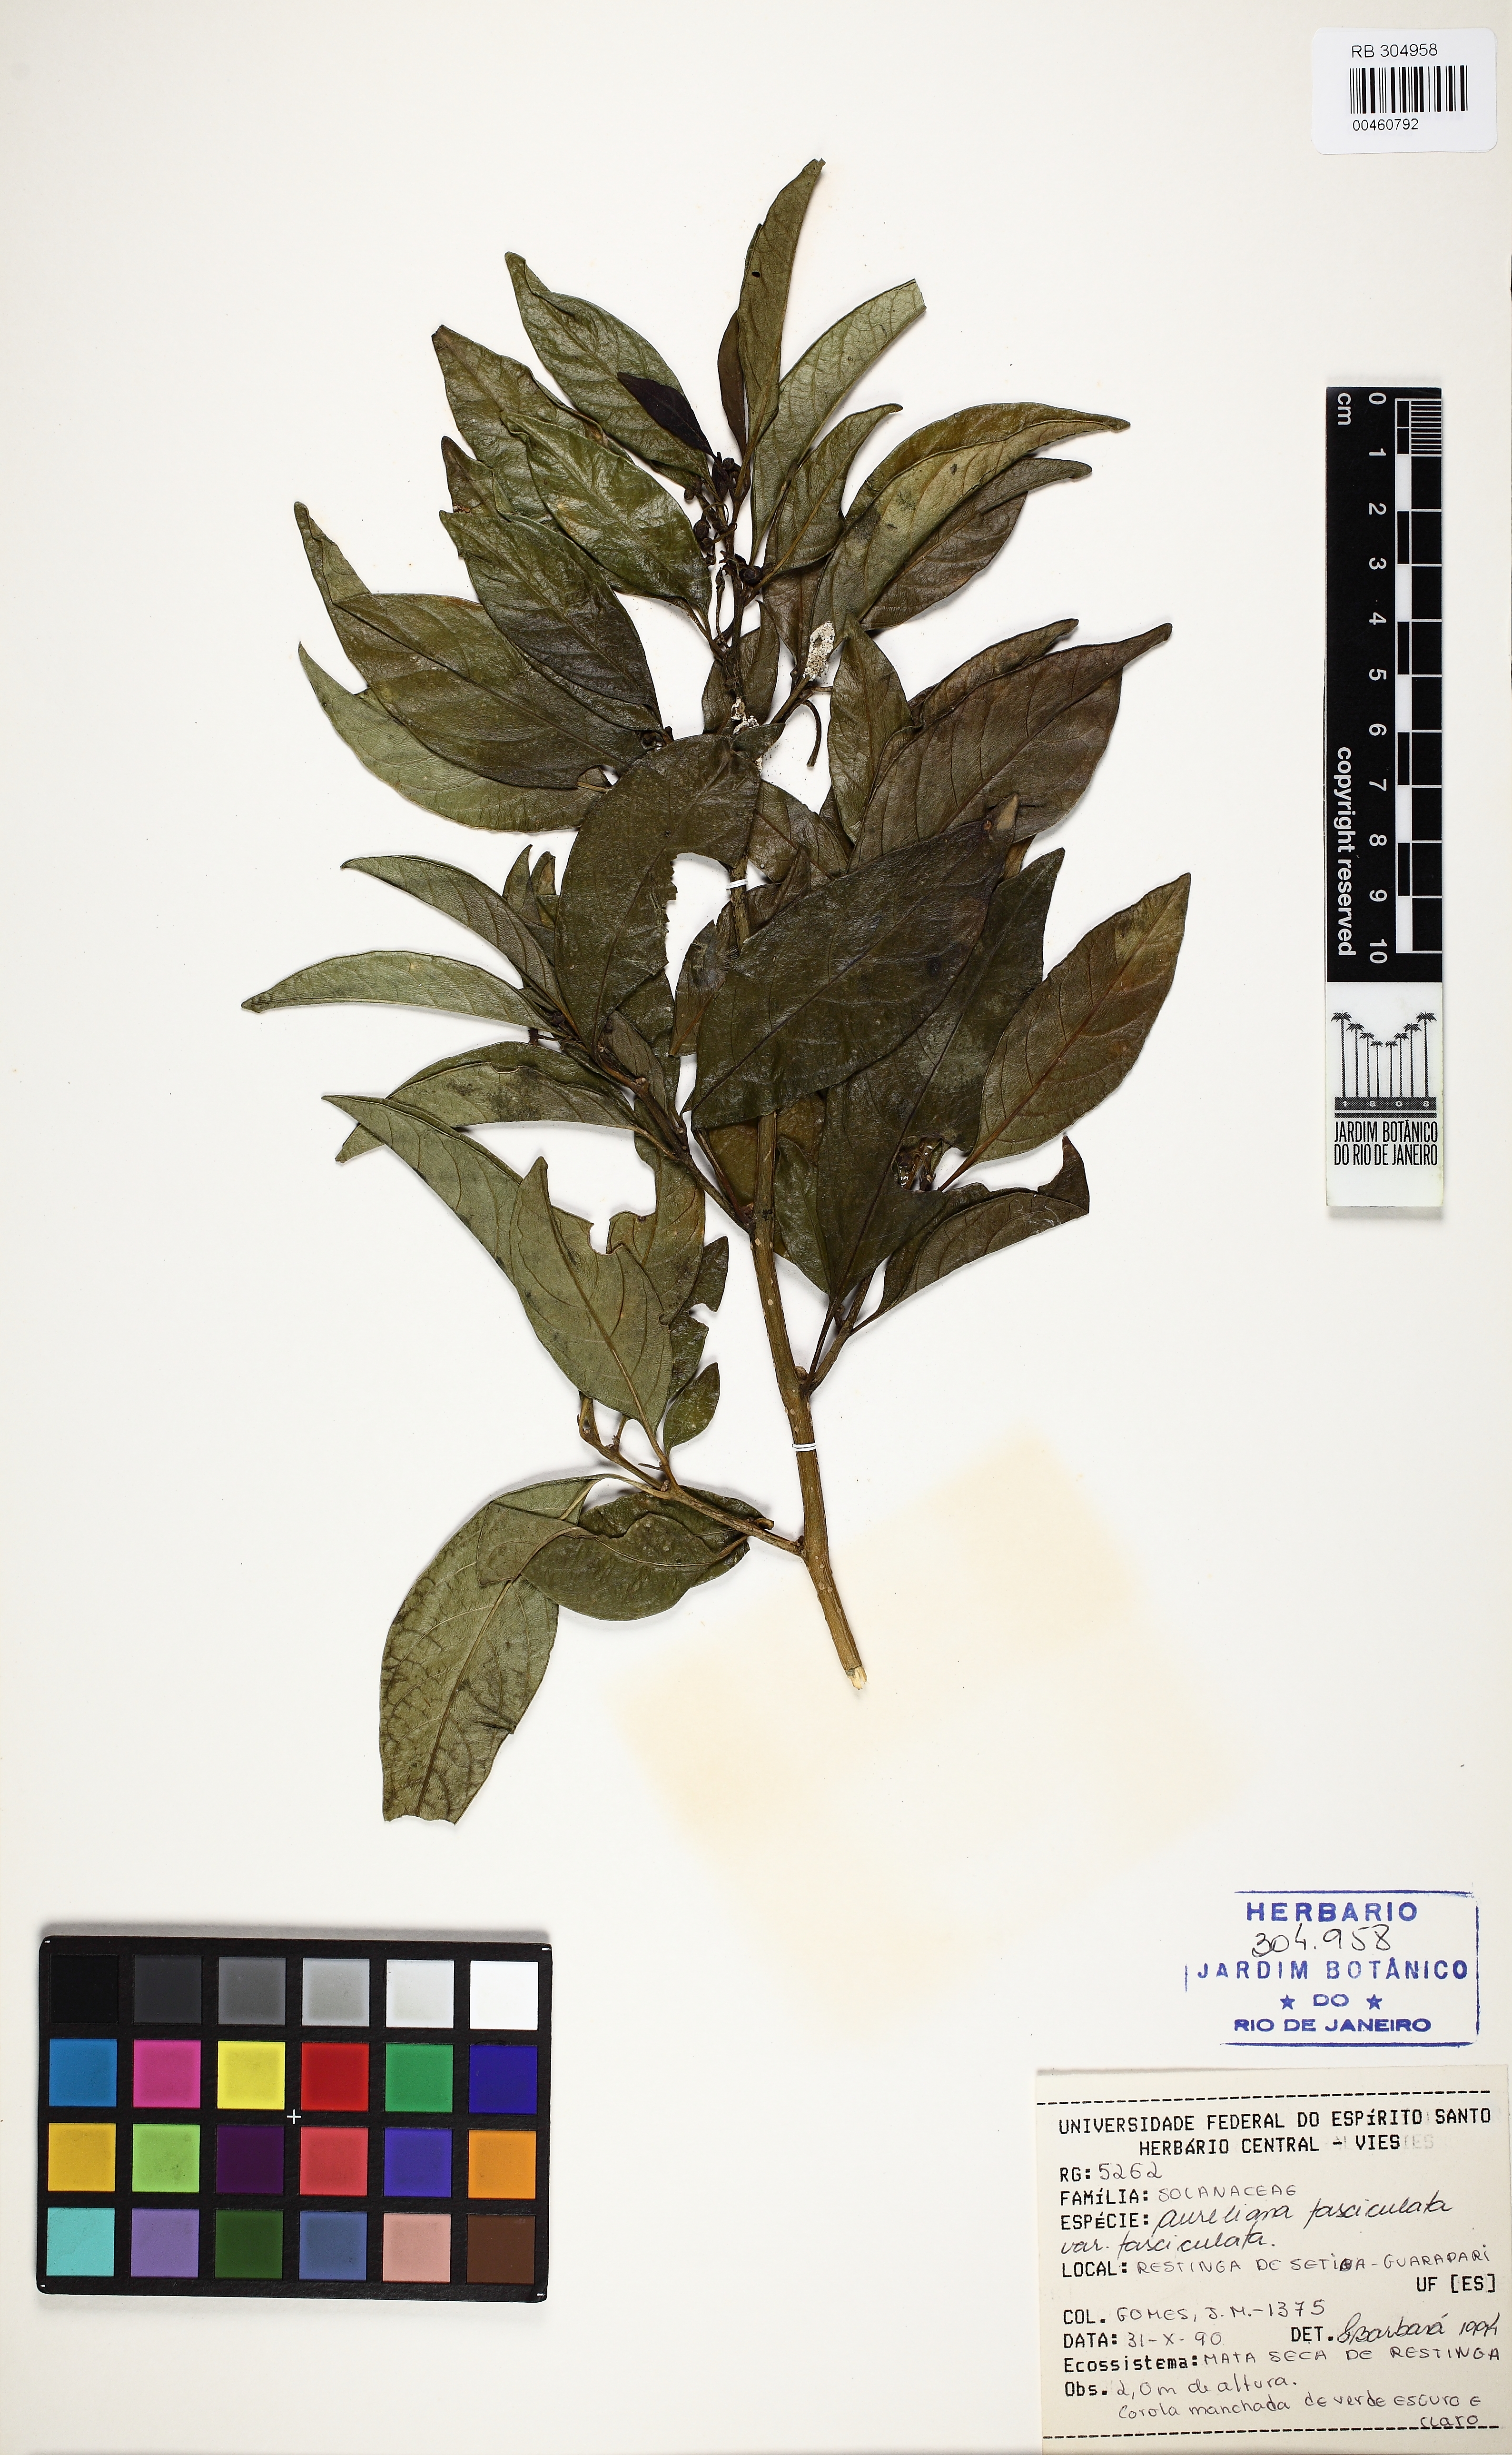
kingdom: Plantae
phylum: Tracheophyta
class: Magnoliopsida
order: Solanales
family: Solanaceae
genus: Athenaea
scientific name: Athenaea fasciculata
